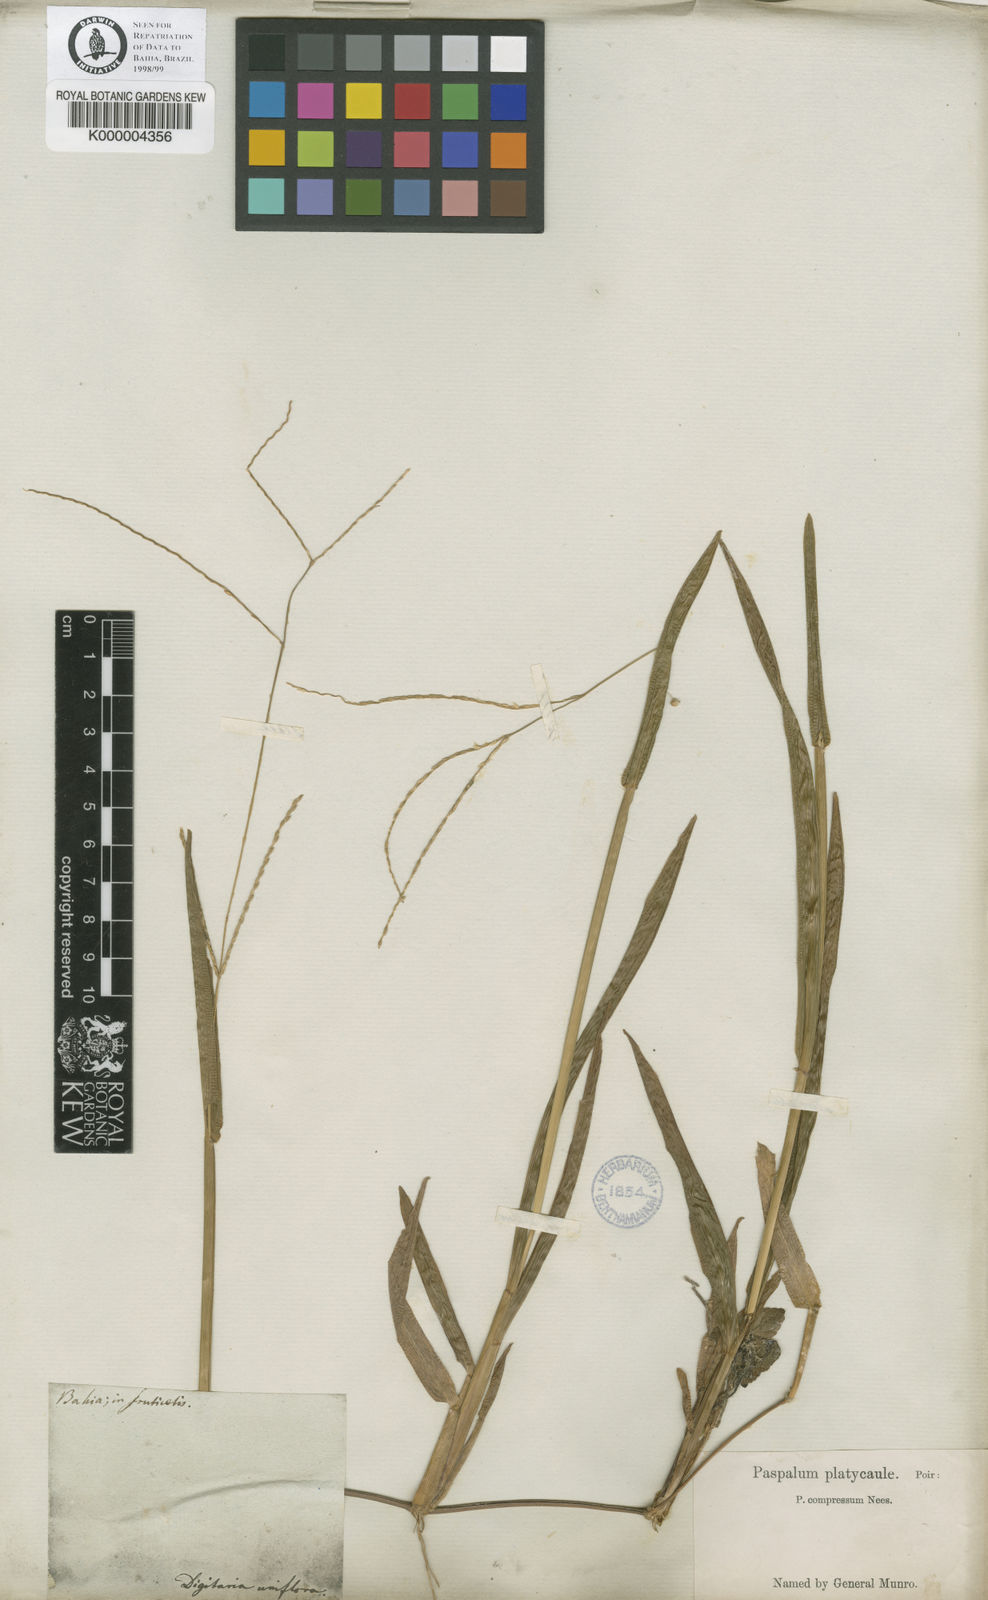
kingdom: Plantae
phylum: Tracheophyta
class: Liliopsida
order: Poales
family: Poaceae
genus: Axonopus
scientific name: Axonopus compressus
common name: American carpet grass
